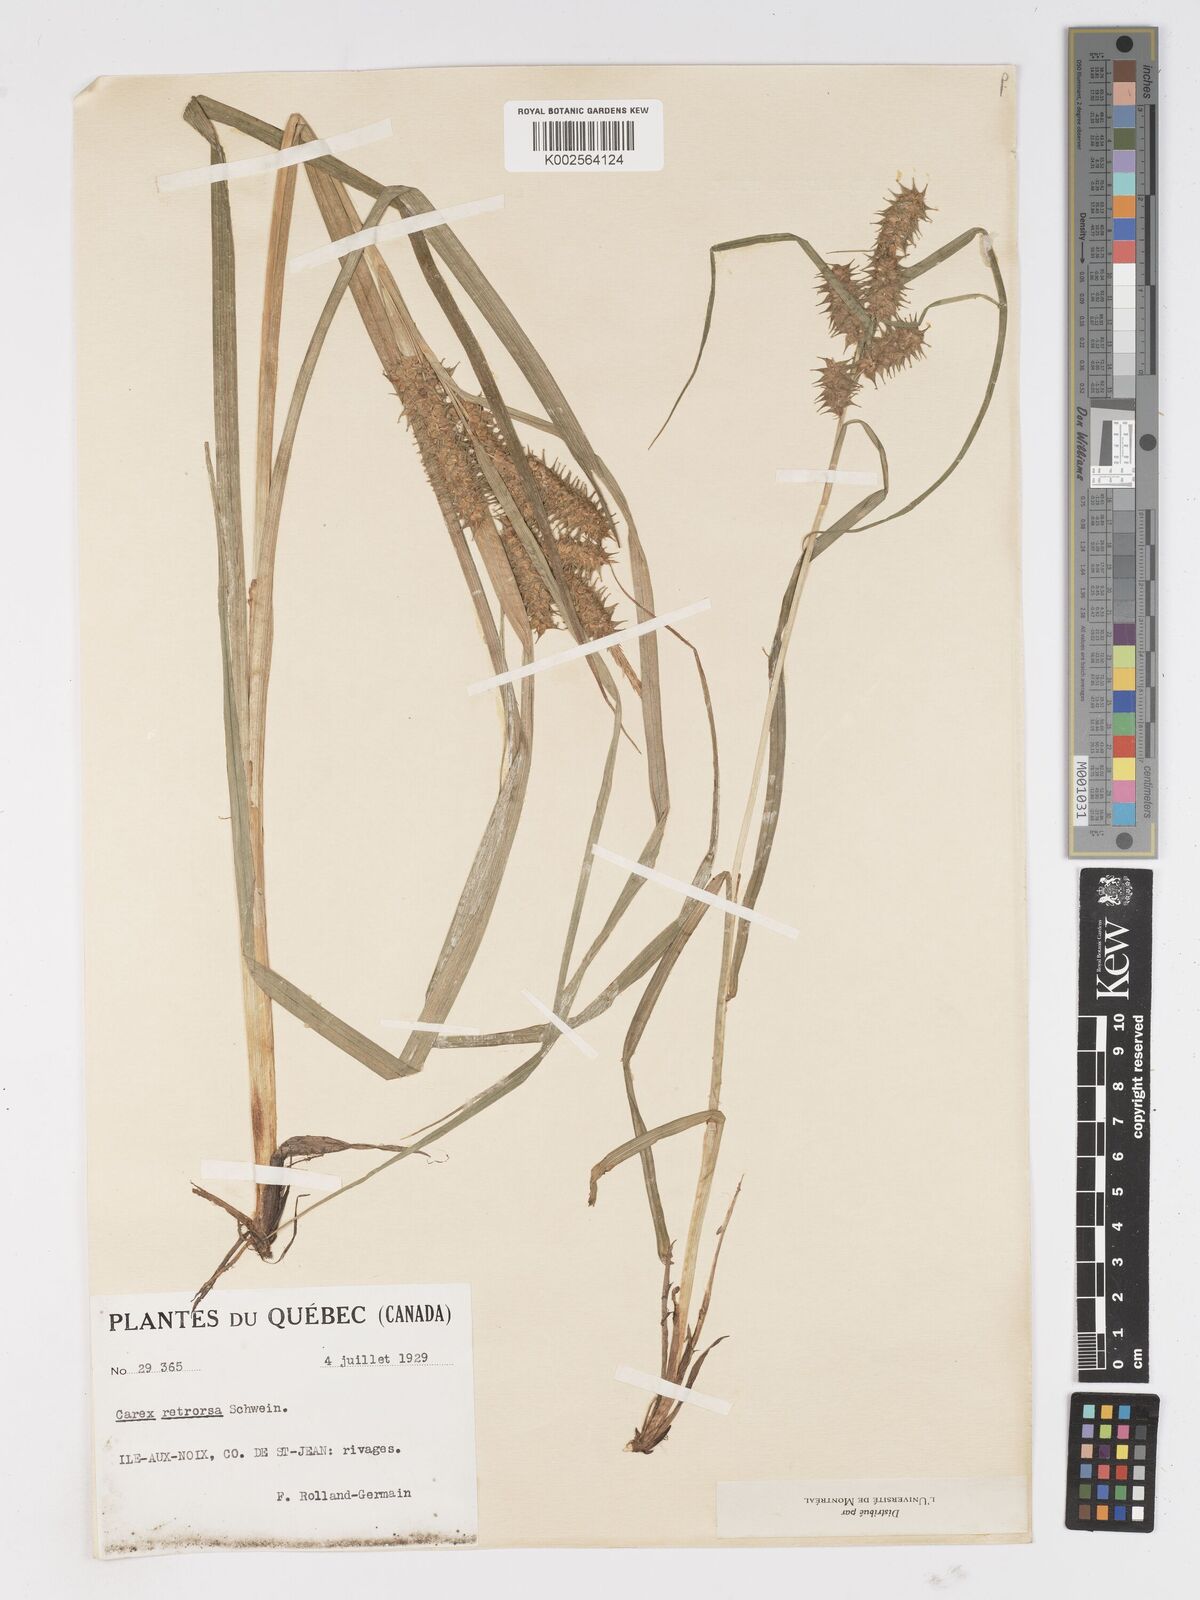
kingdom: Plantae
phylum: Tracheophyta
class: Liliopsida
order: Poales
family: Cyperaceae
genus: Carex
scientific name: Carex retrorsa
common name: Knot-sheath sedge
